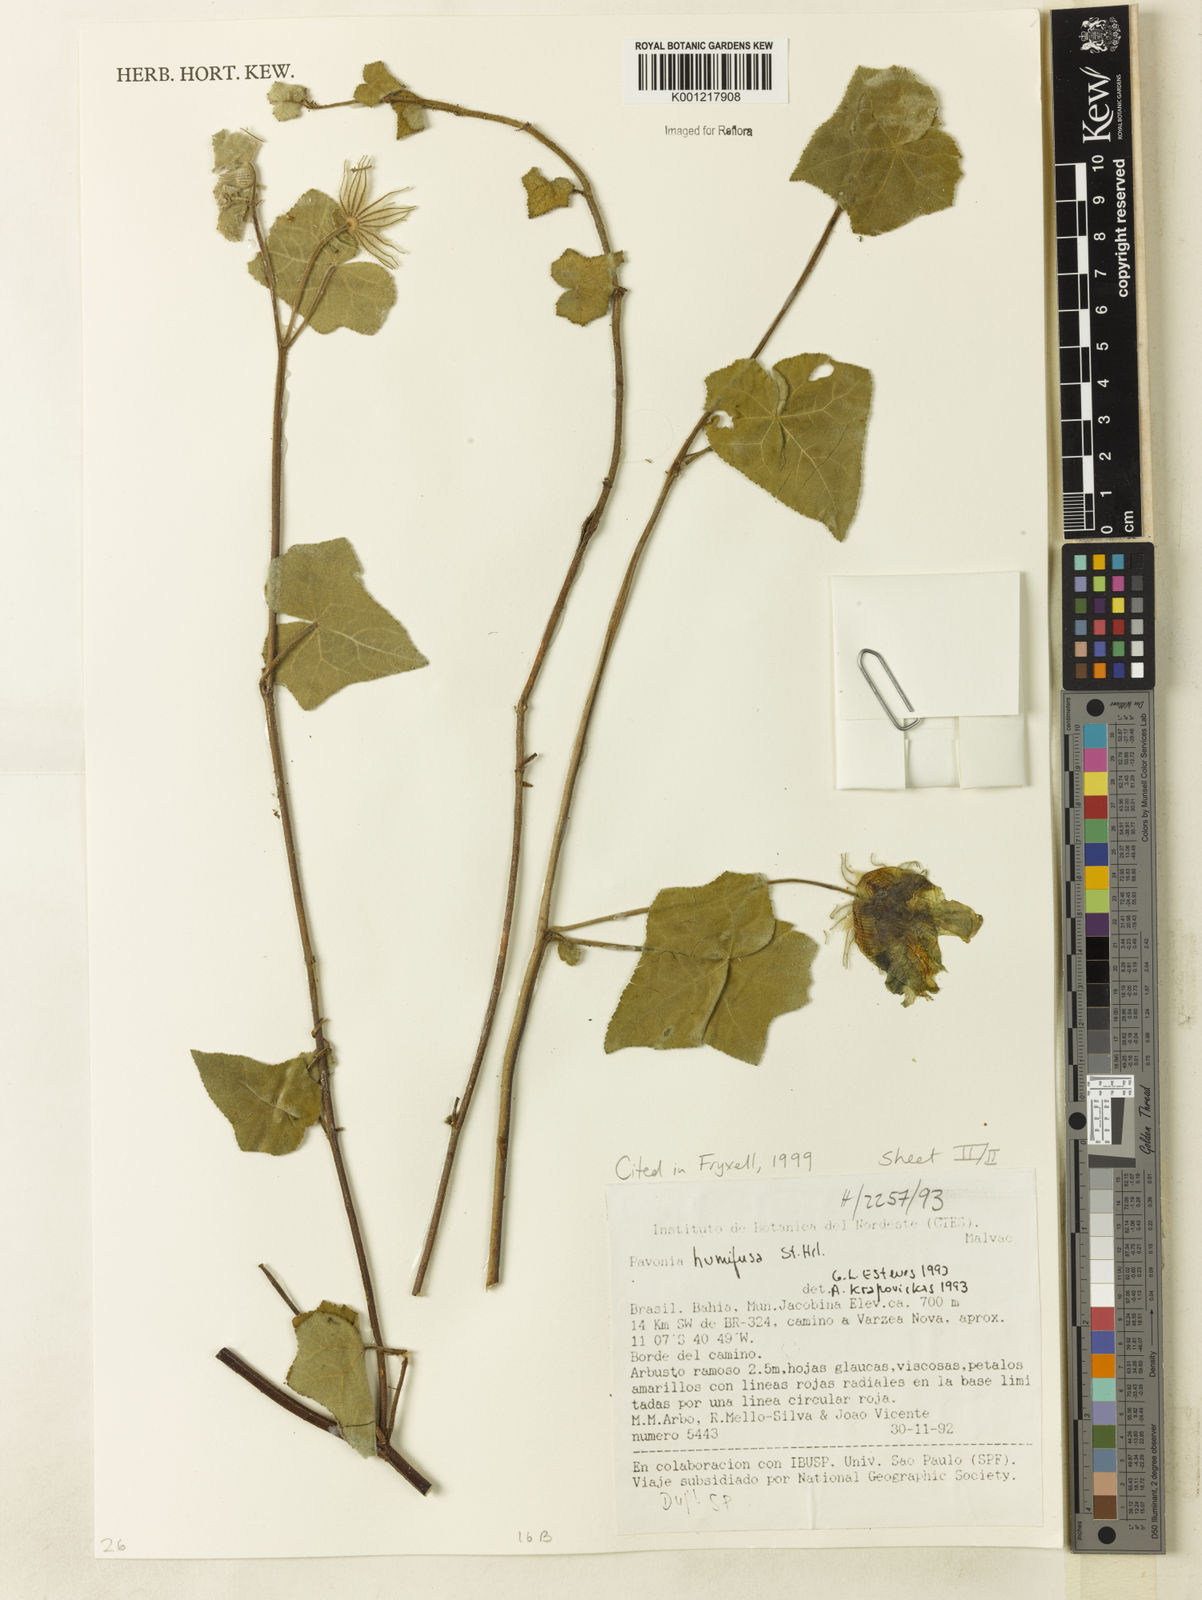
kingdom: Plantae
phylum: Tracheophyta
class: Magnoliopsida
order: Malvales
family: Malvaceae
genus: Pavonia
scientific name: Pavonia humifusa
